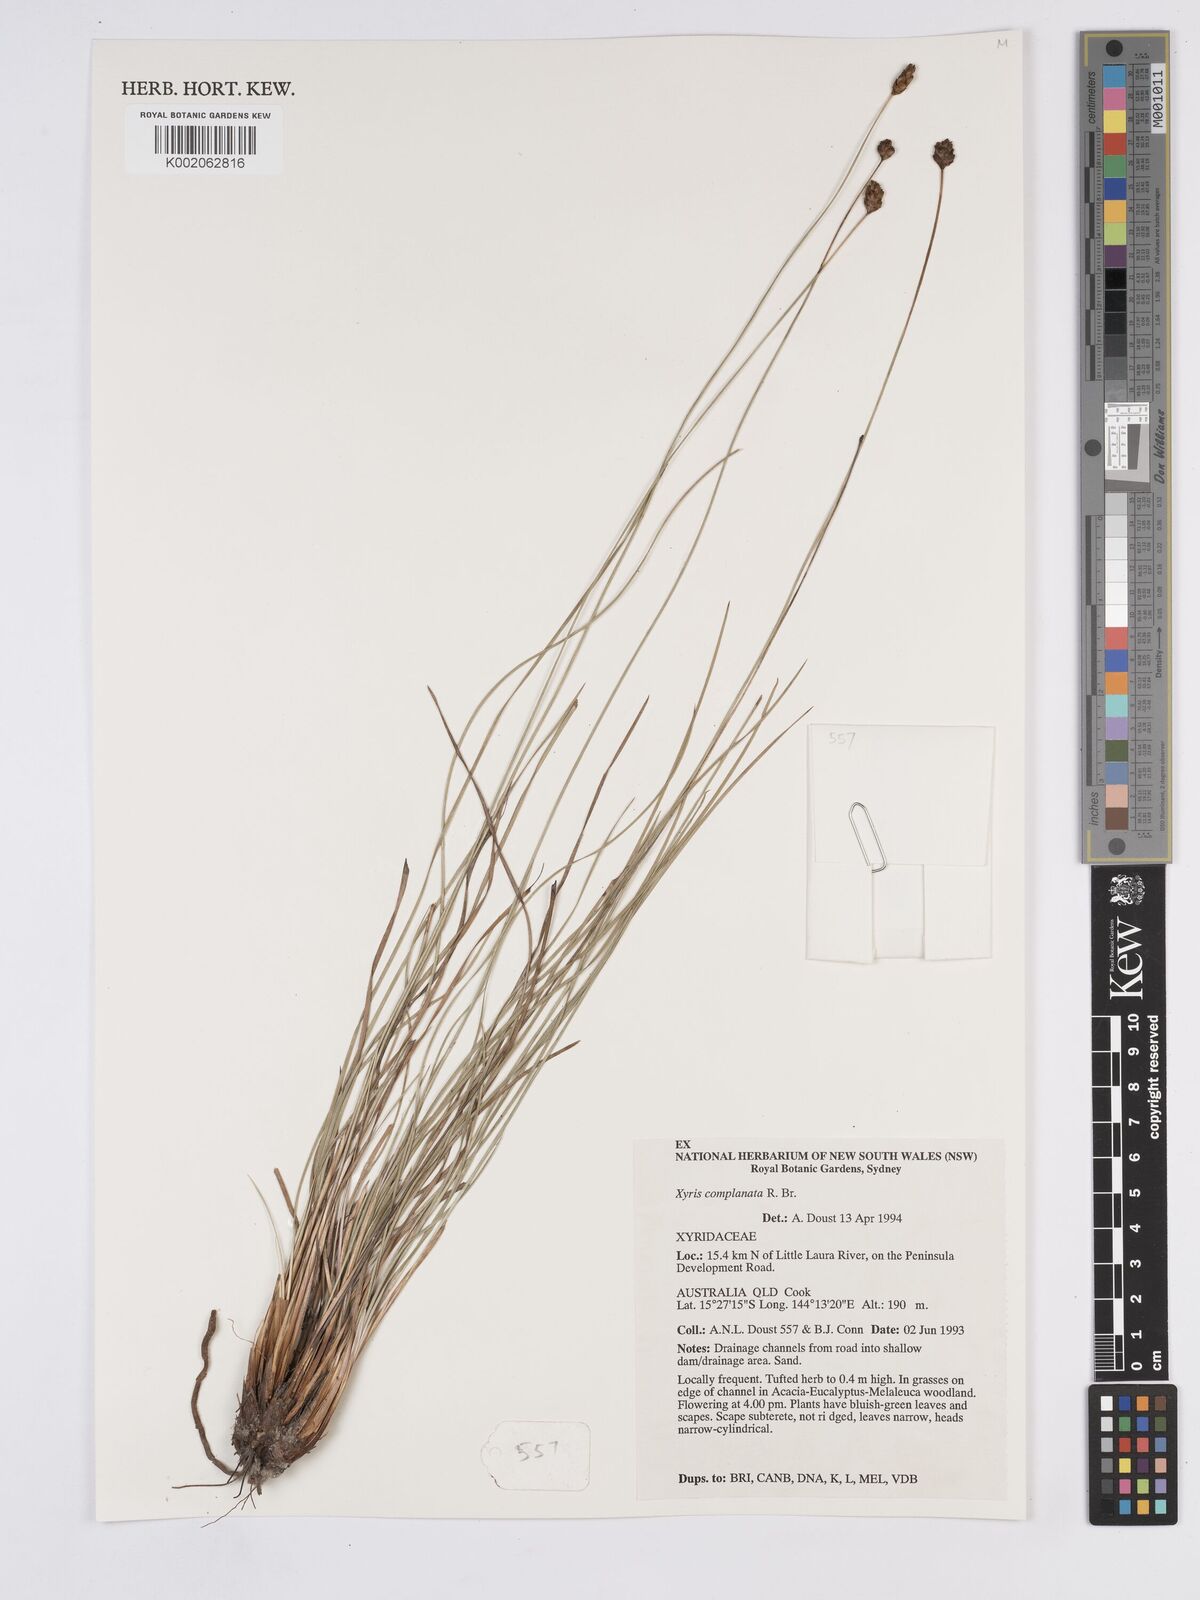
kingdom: Plantae
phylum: Tracheophyta
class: Liliopsida
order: Poales
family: Xyridaceae
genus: Xyris
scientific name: Xyris complanata
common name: Hawai'i yelloweyed grass
